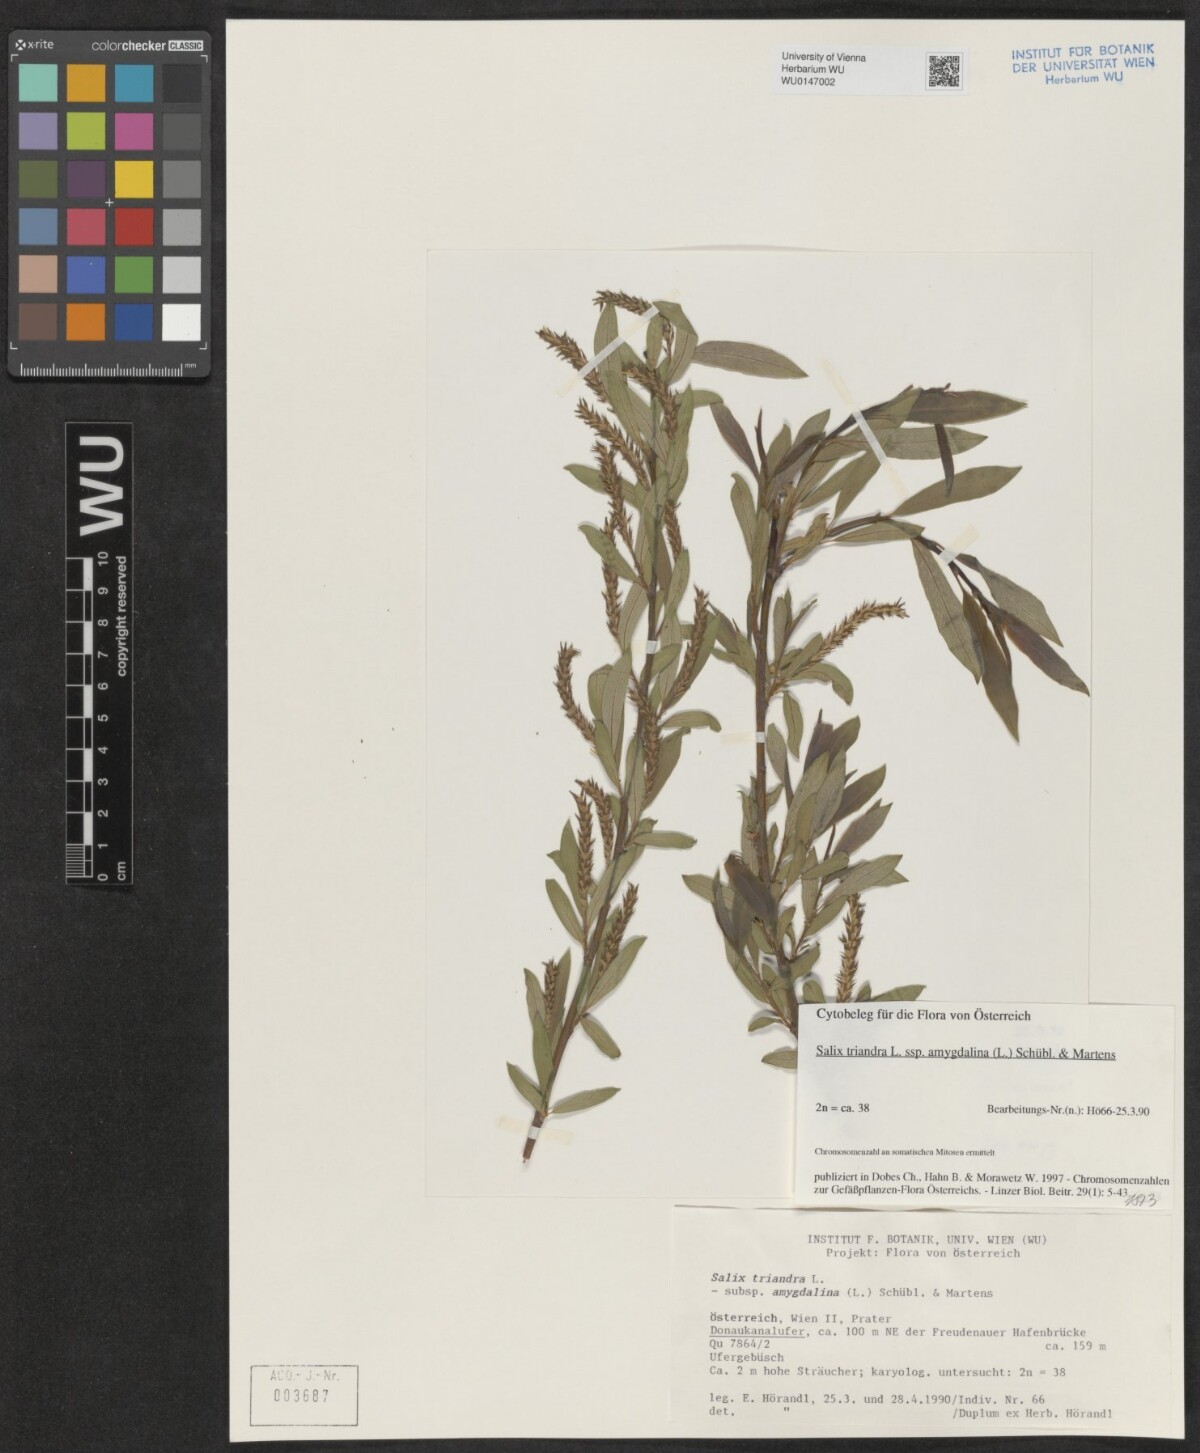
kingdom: Plantae
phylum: Tracheophyta
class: Magnoliopsida
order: Malpighiales
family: Salicaceae
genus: Salix
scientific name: Salix triandra
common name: Almond willow
